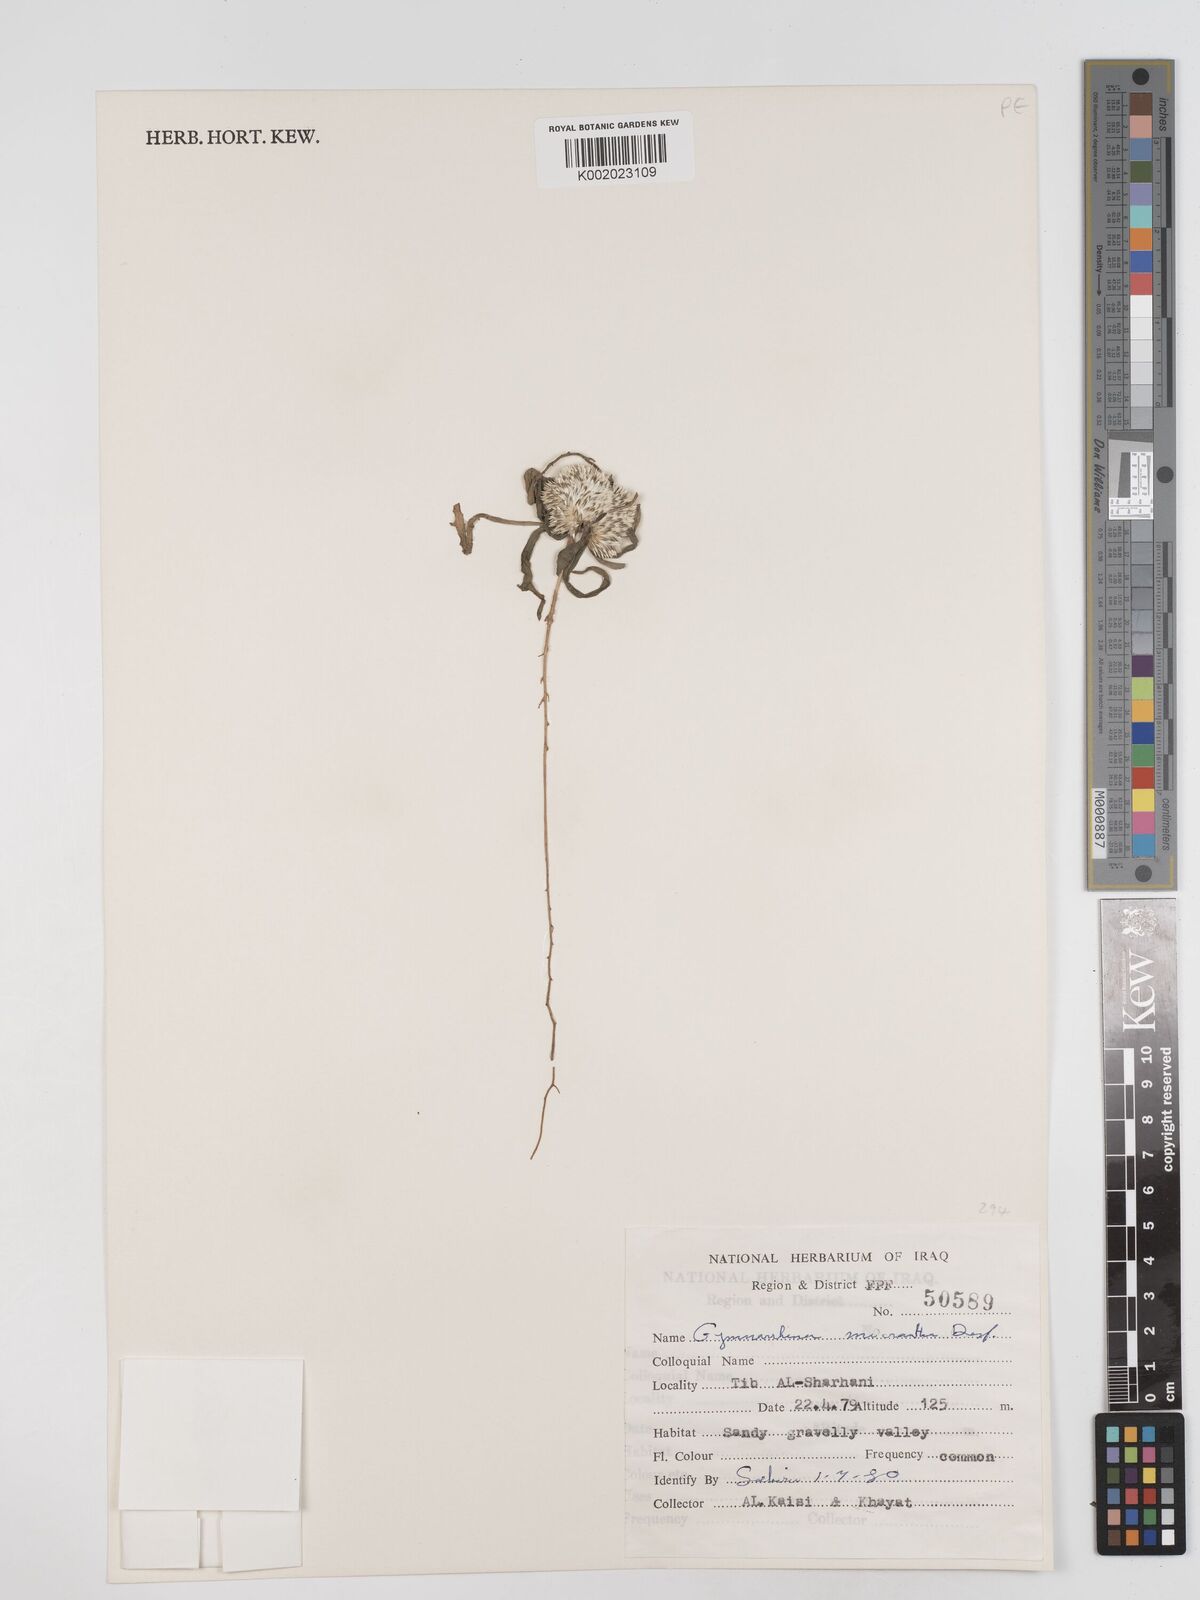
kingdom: Plantae
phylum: Tracheophyta
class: Magnoliopsida
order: Asterales
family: Asteraceae
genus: Gymnarrhena
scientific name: Gymnarrhena micrantha
